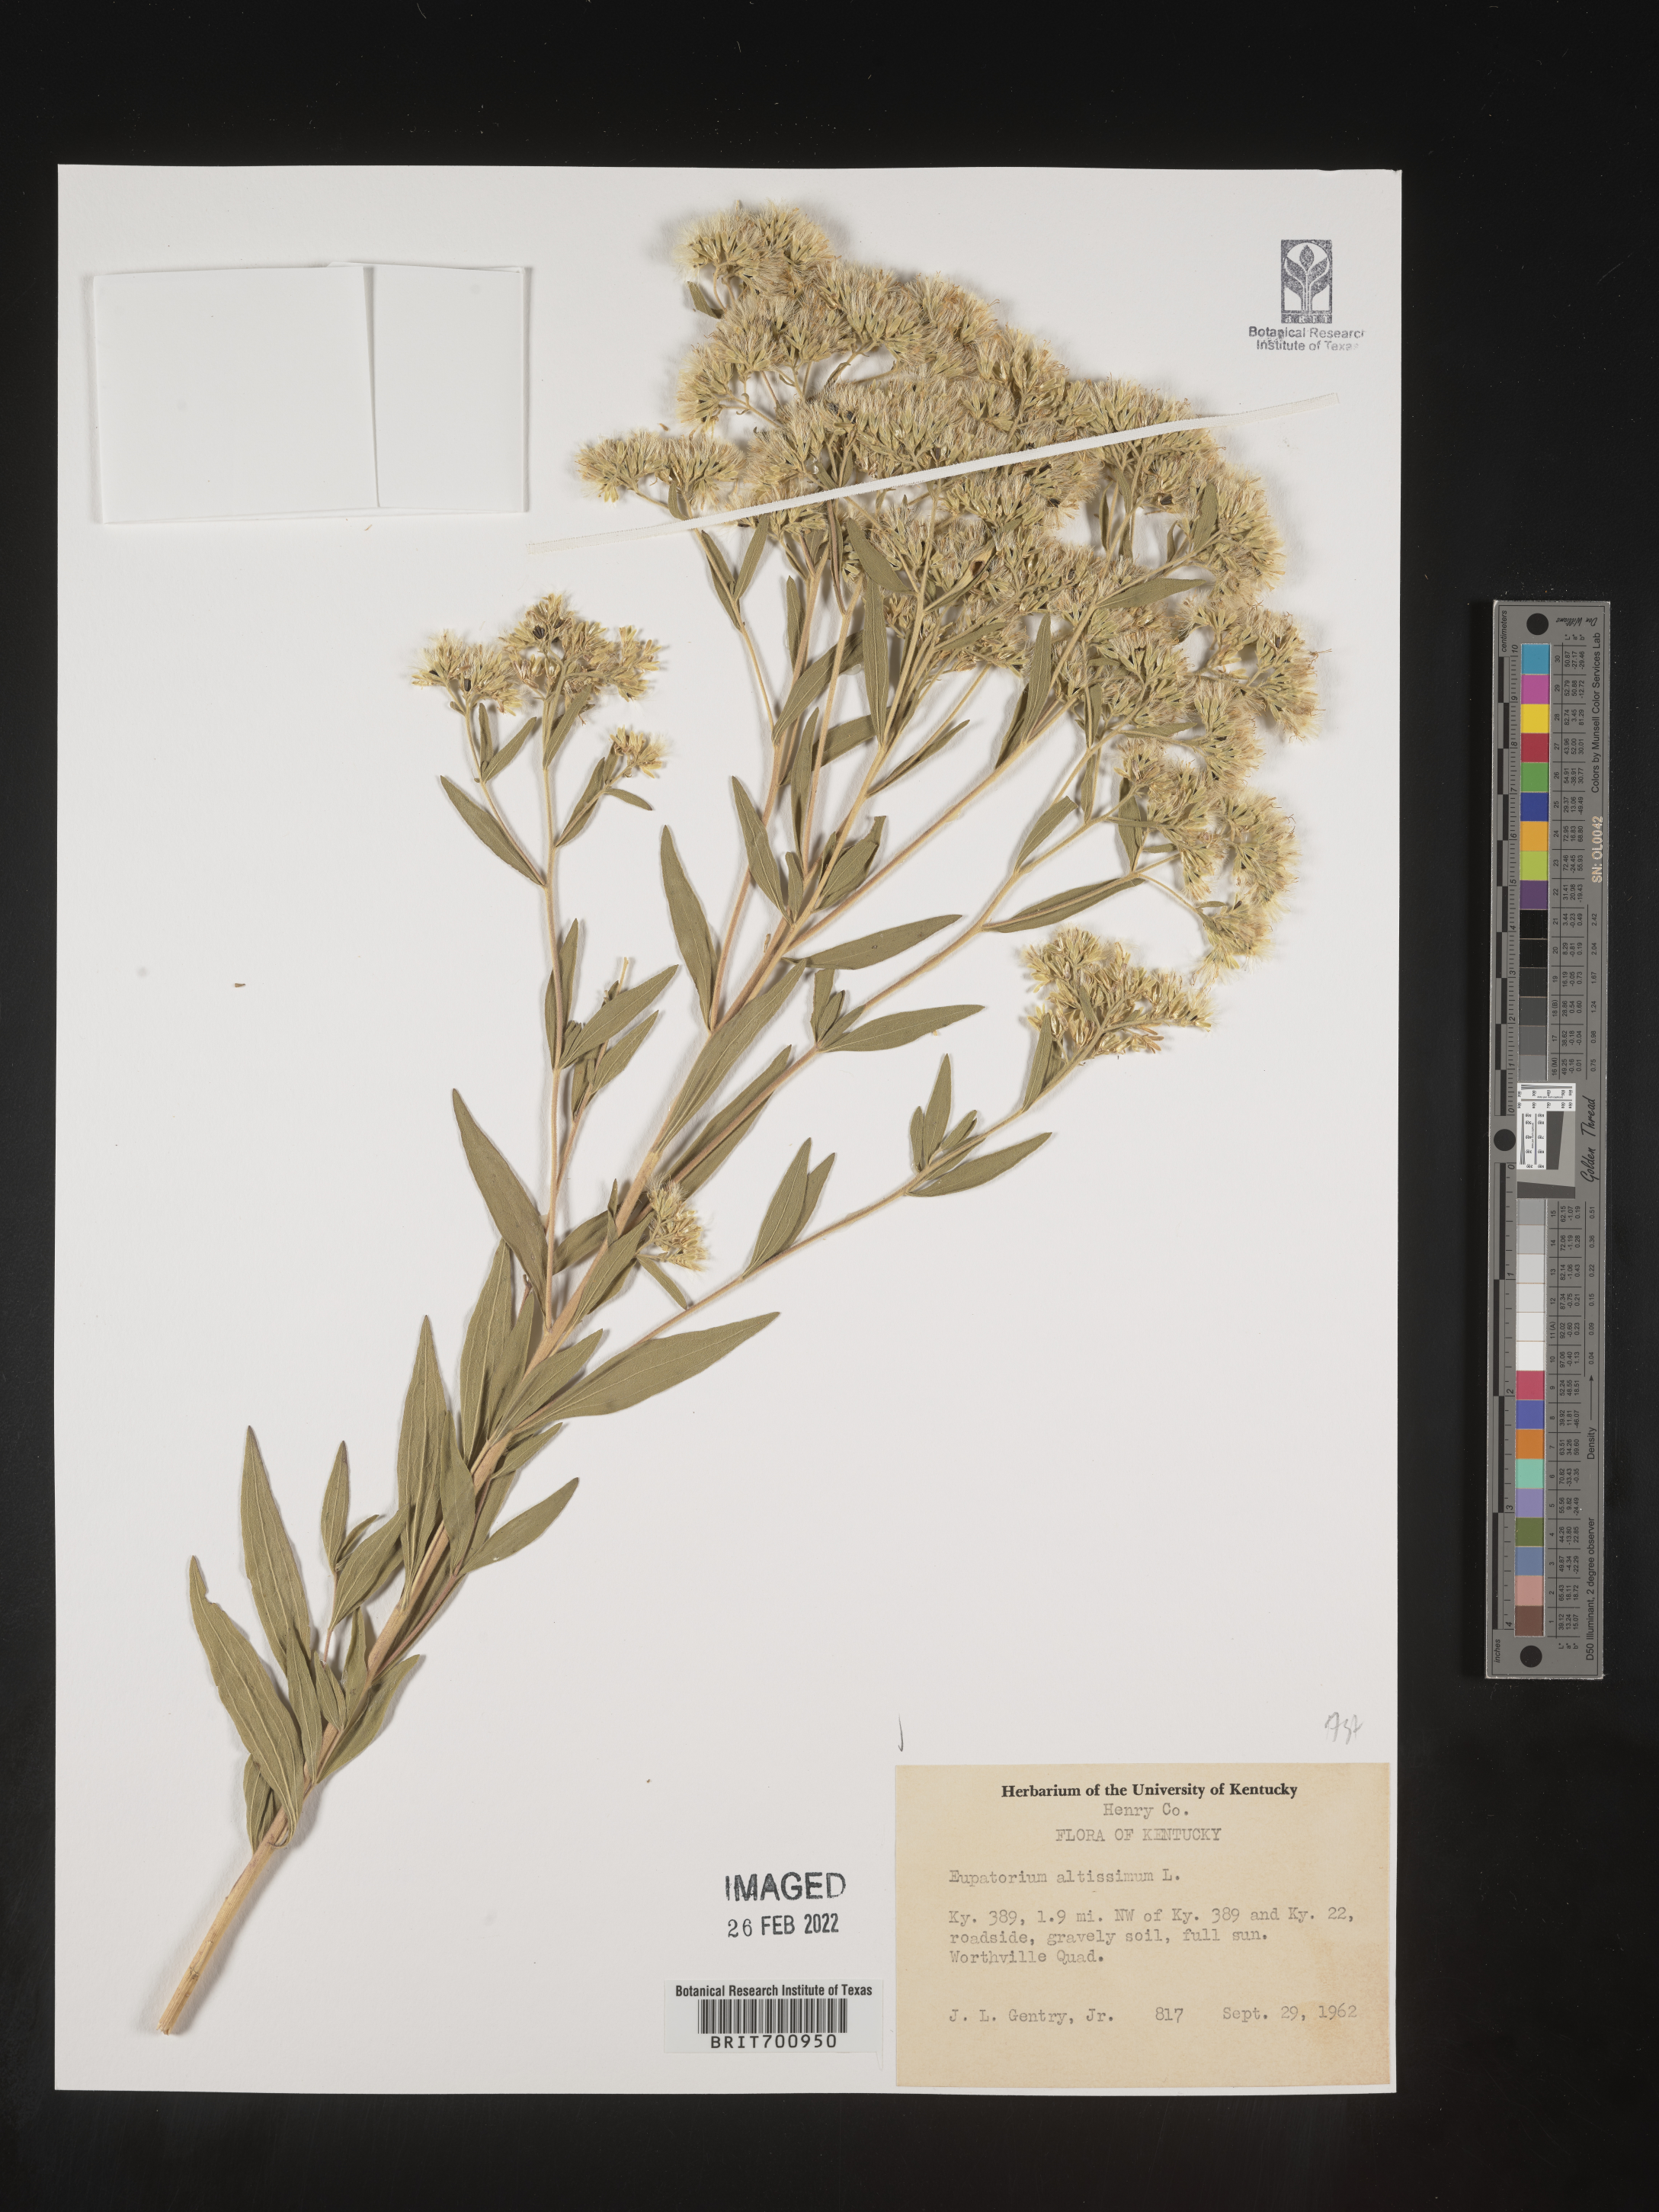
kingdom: Plantae
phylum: Tracheophyta
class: Magnoliopsida
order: Asterales
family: Asteraceae
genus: Eupatorium
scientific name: Eupatorium altissimum
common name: Tall thoroughwort
